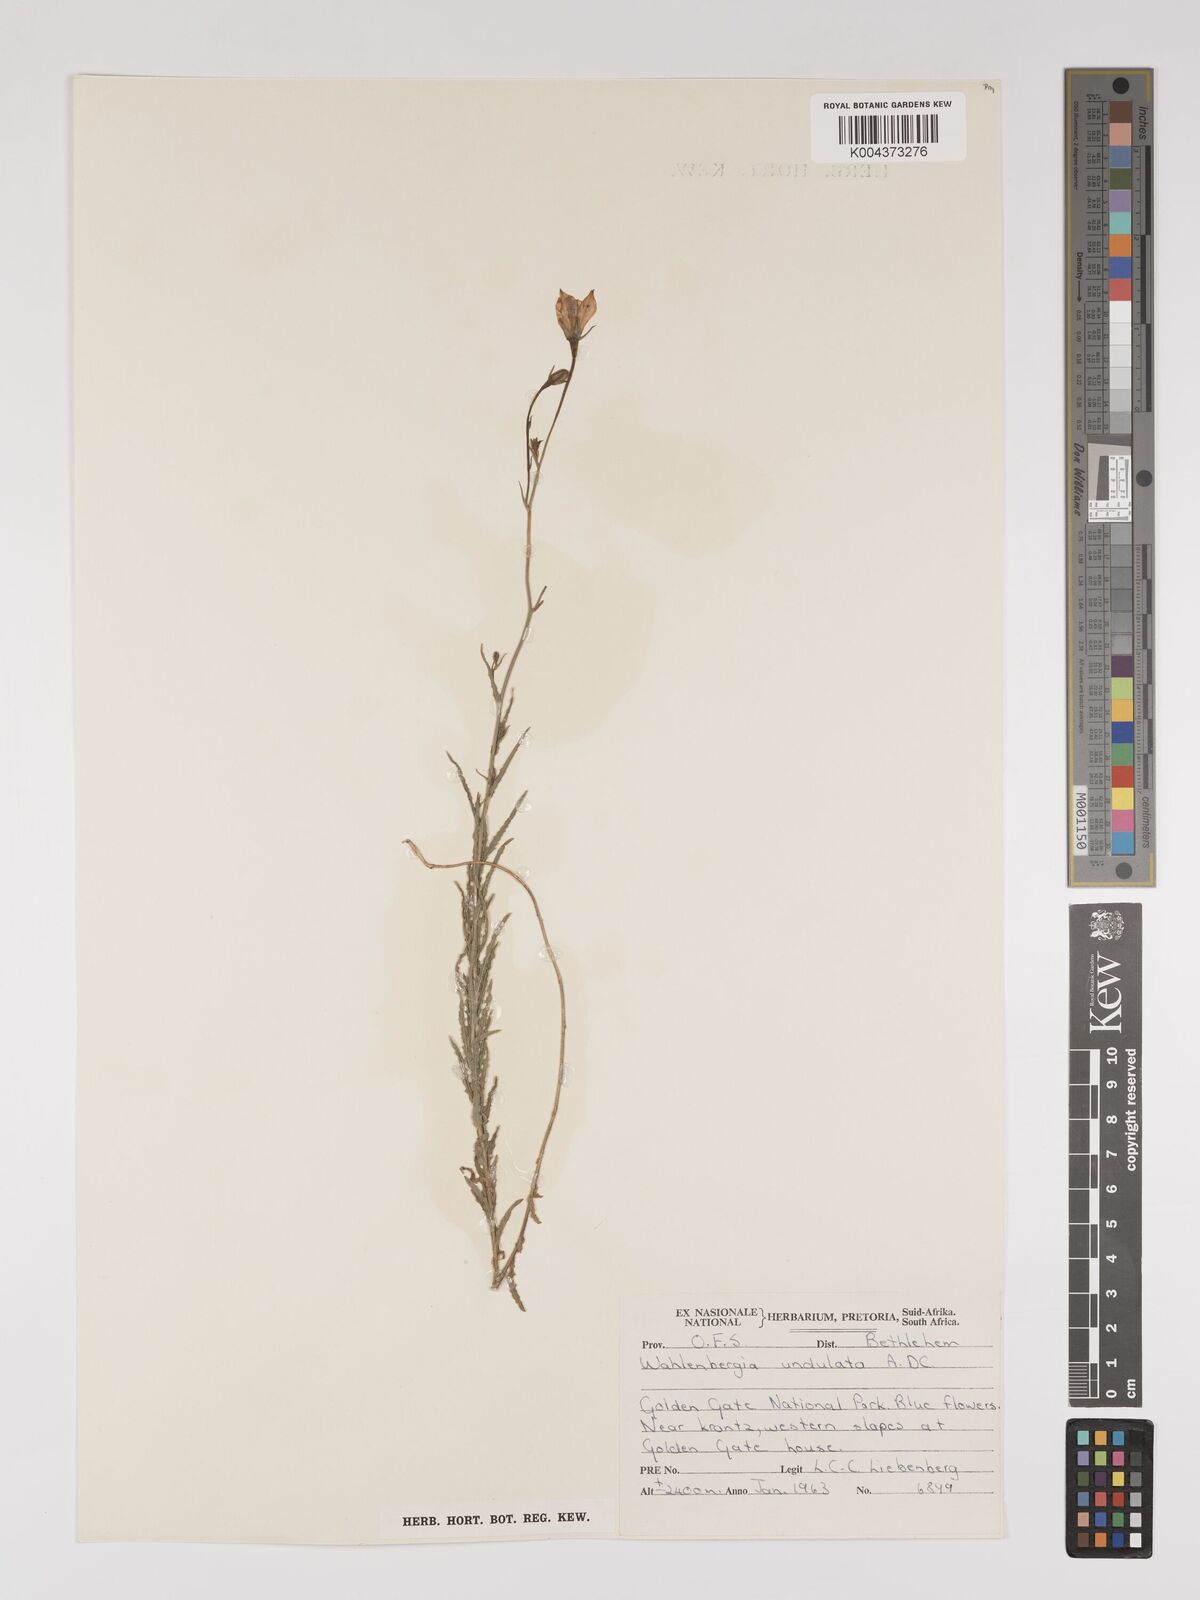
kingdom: Plantae
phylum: Tracheophyta
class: Magnoliopsida
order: Asterales
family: Campanulaceae
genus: Wahlenbergia
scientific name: Wahlenbergia undulata
